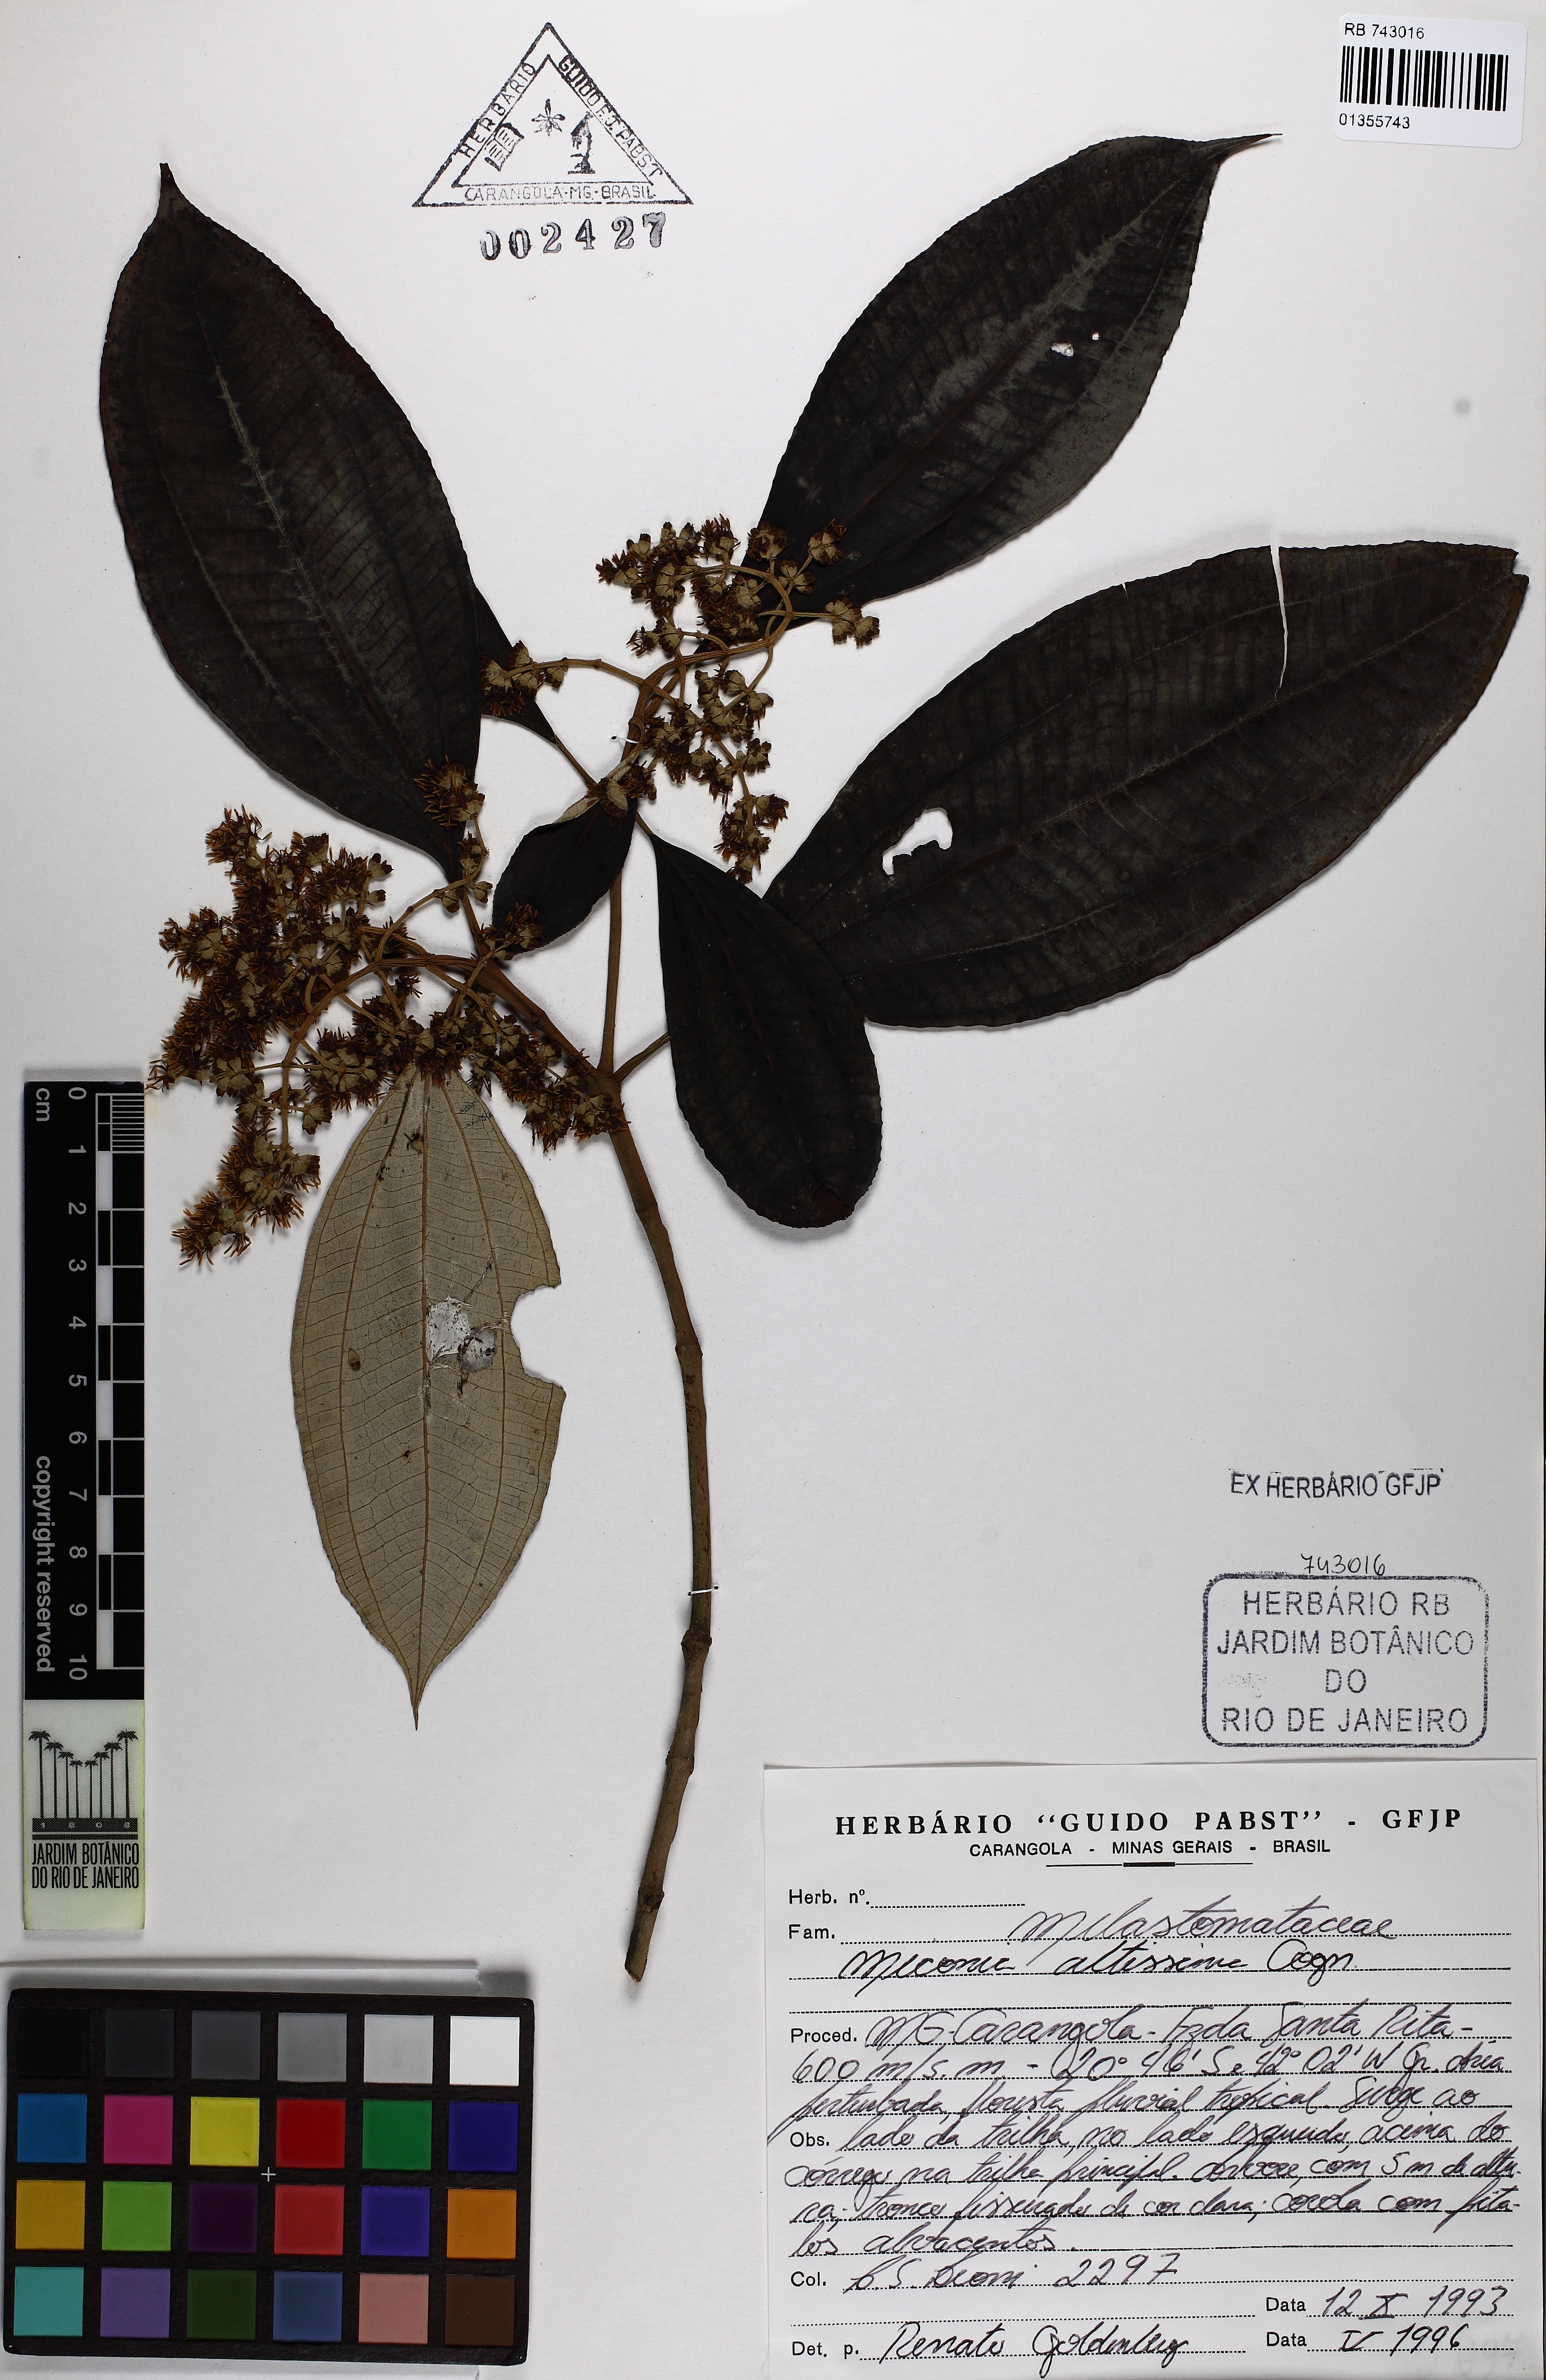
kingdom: Plantae
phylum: Tracheophyta
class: Magnoliopsida
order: Myrtales
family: Melastomataceae
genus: Miconia
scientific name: Miconia formosa
